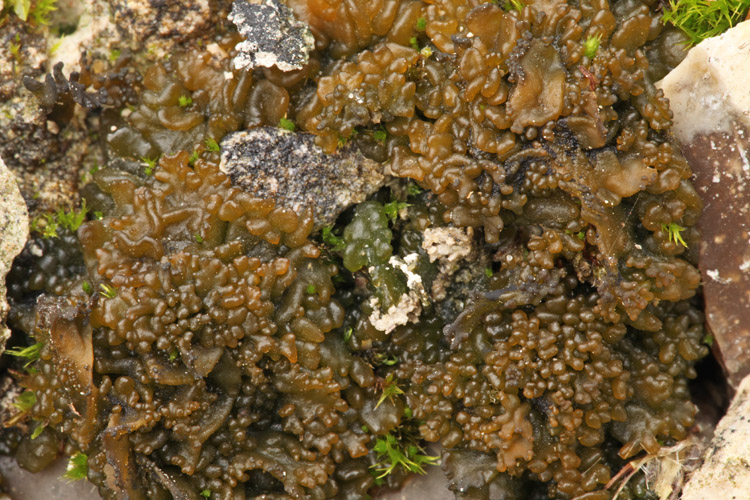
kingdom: Fungi
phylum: Ascomycota
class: Lecanoromycetes
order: Peltigerales
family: Collemataceae
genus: Lathagrium
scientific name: Lathagrium cristatum
